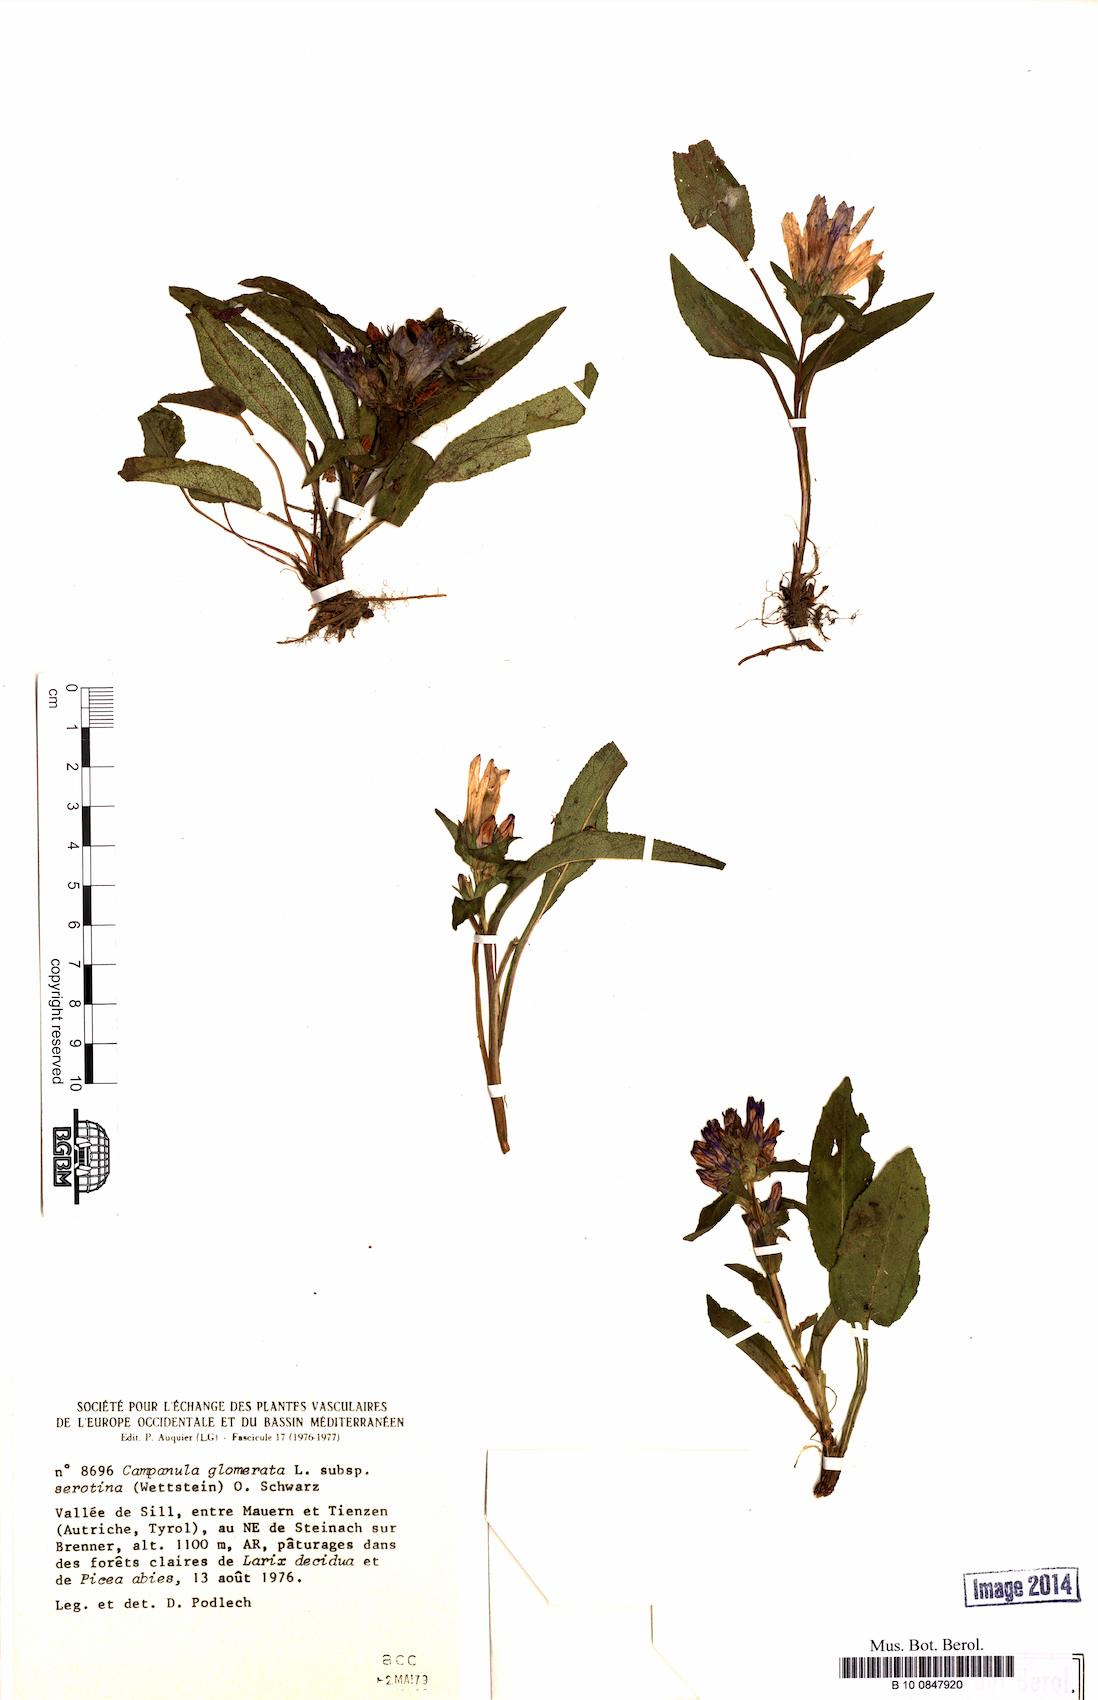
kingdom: Plantae
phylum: Tracheophyta
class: Magnoliopsida
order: Asterales
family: Campanulaceae
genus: Campanula
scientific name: Campanula glomerata
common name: Clustered bellflower
